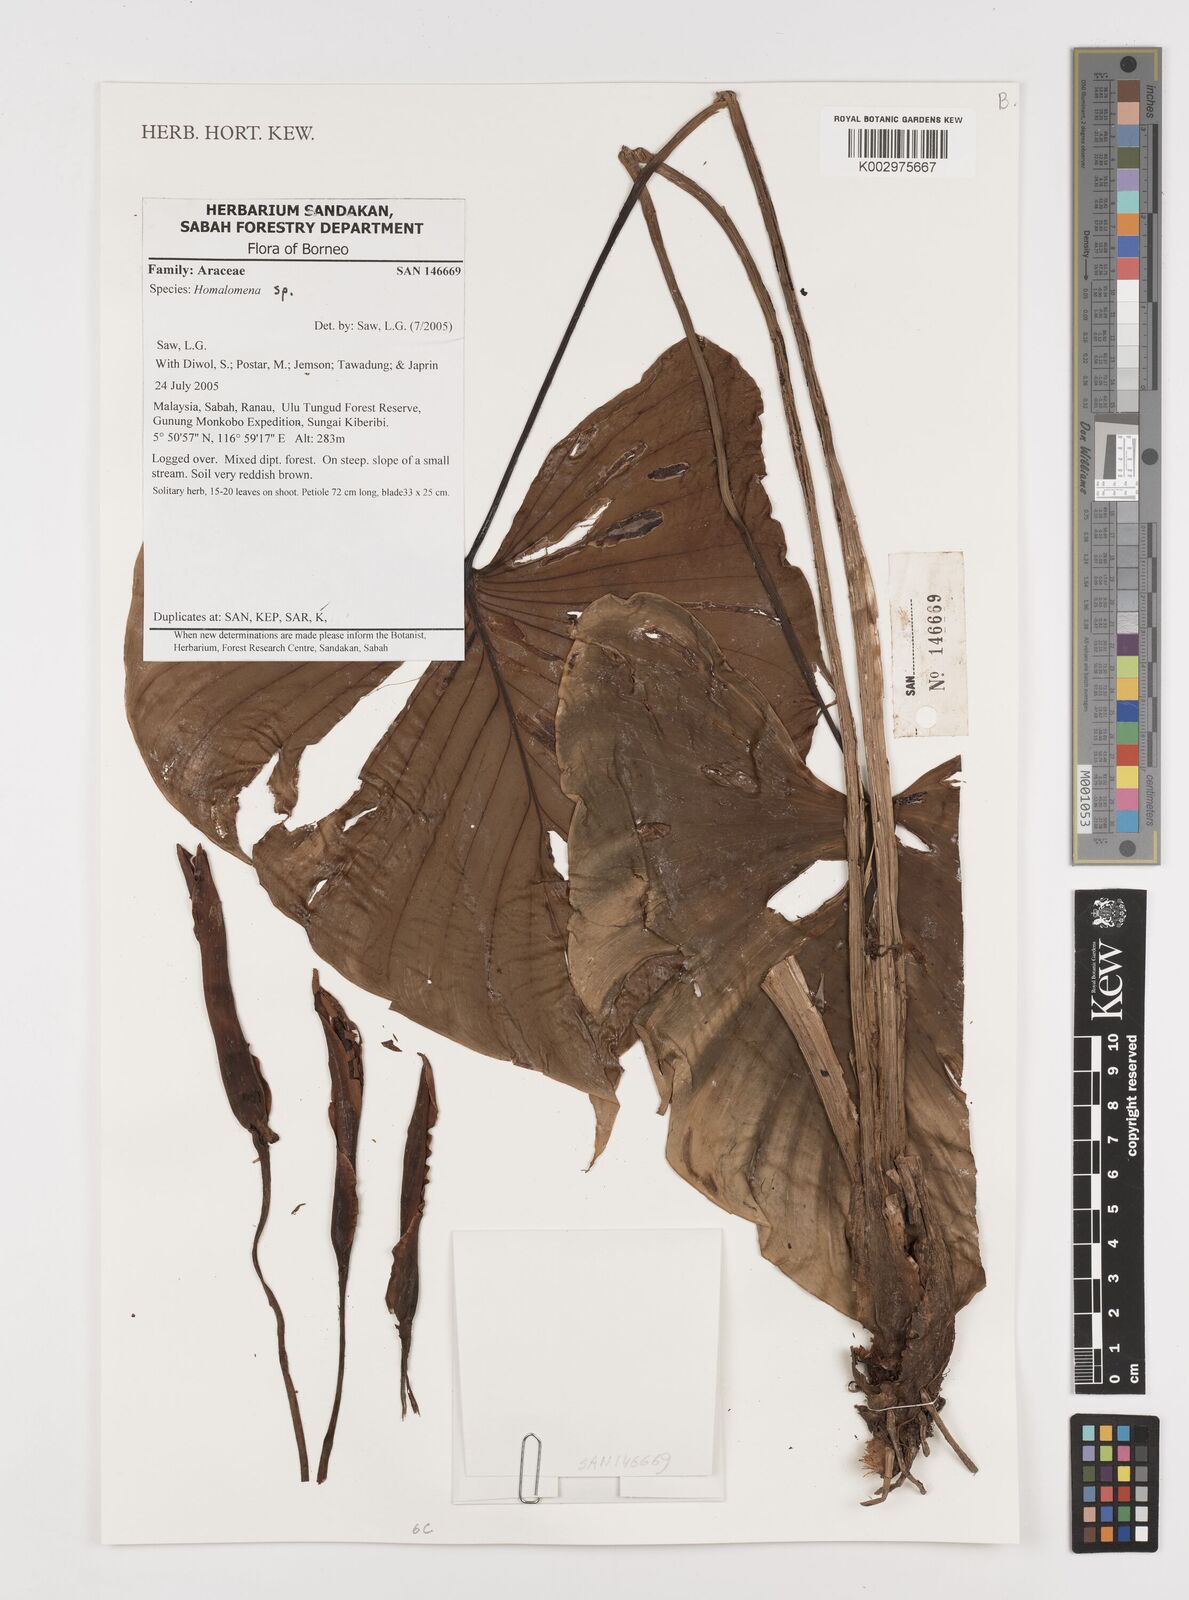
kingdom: Plantae
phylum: Tracheophyta
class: Liliopsida
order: Alismatales
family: Araceae
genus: Homalomena
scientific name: Homalomena
